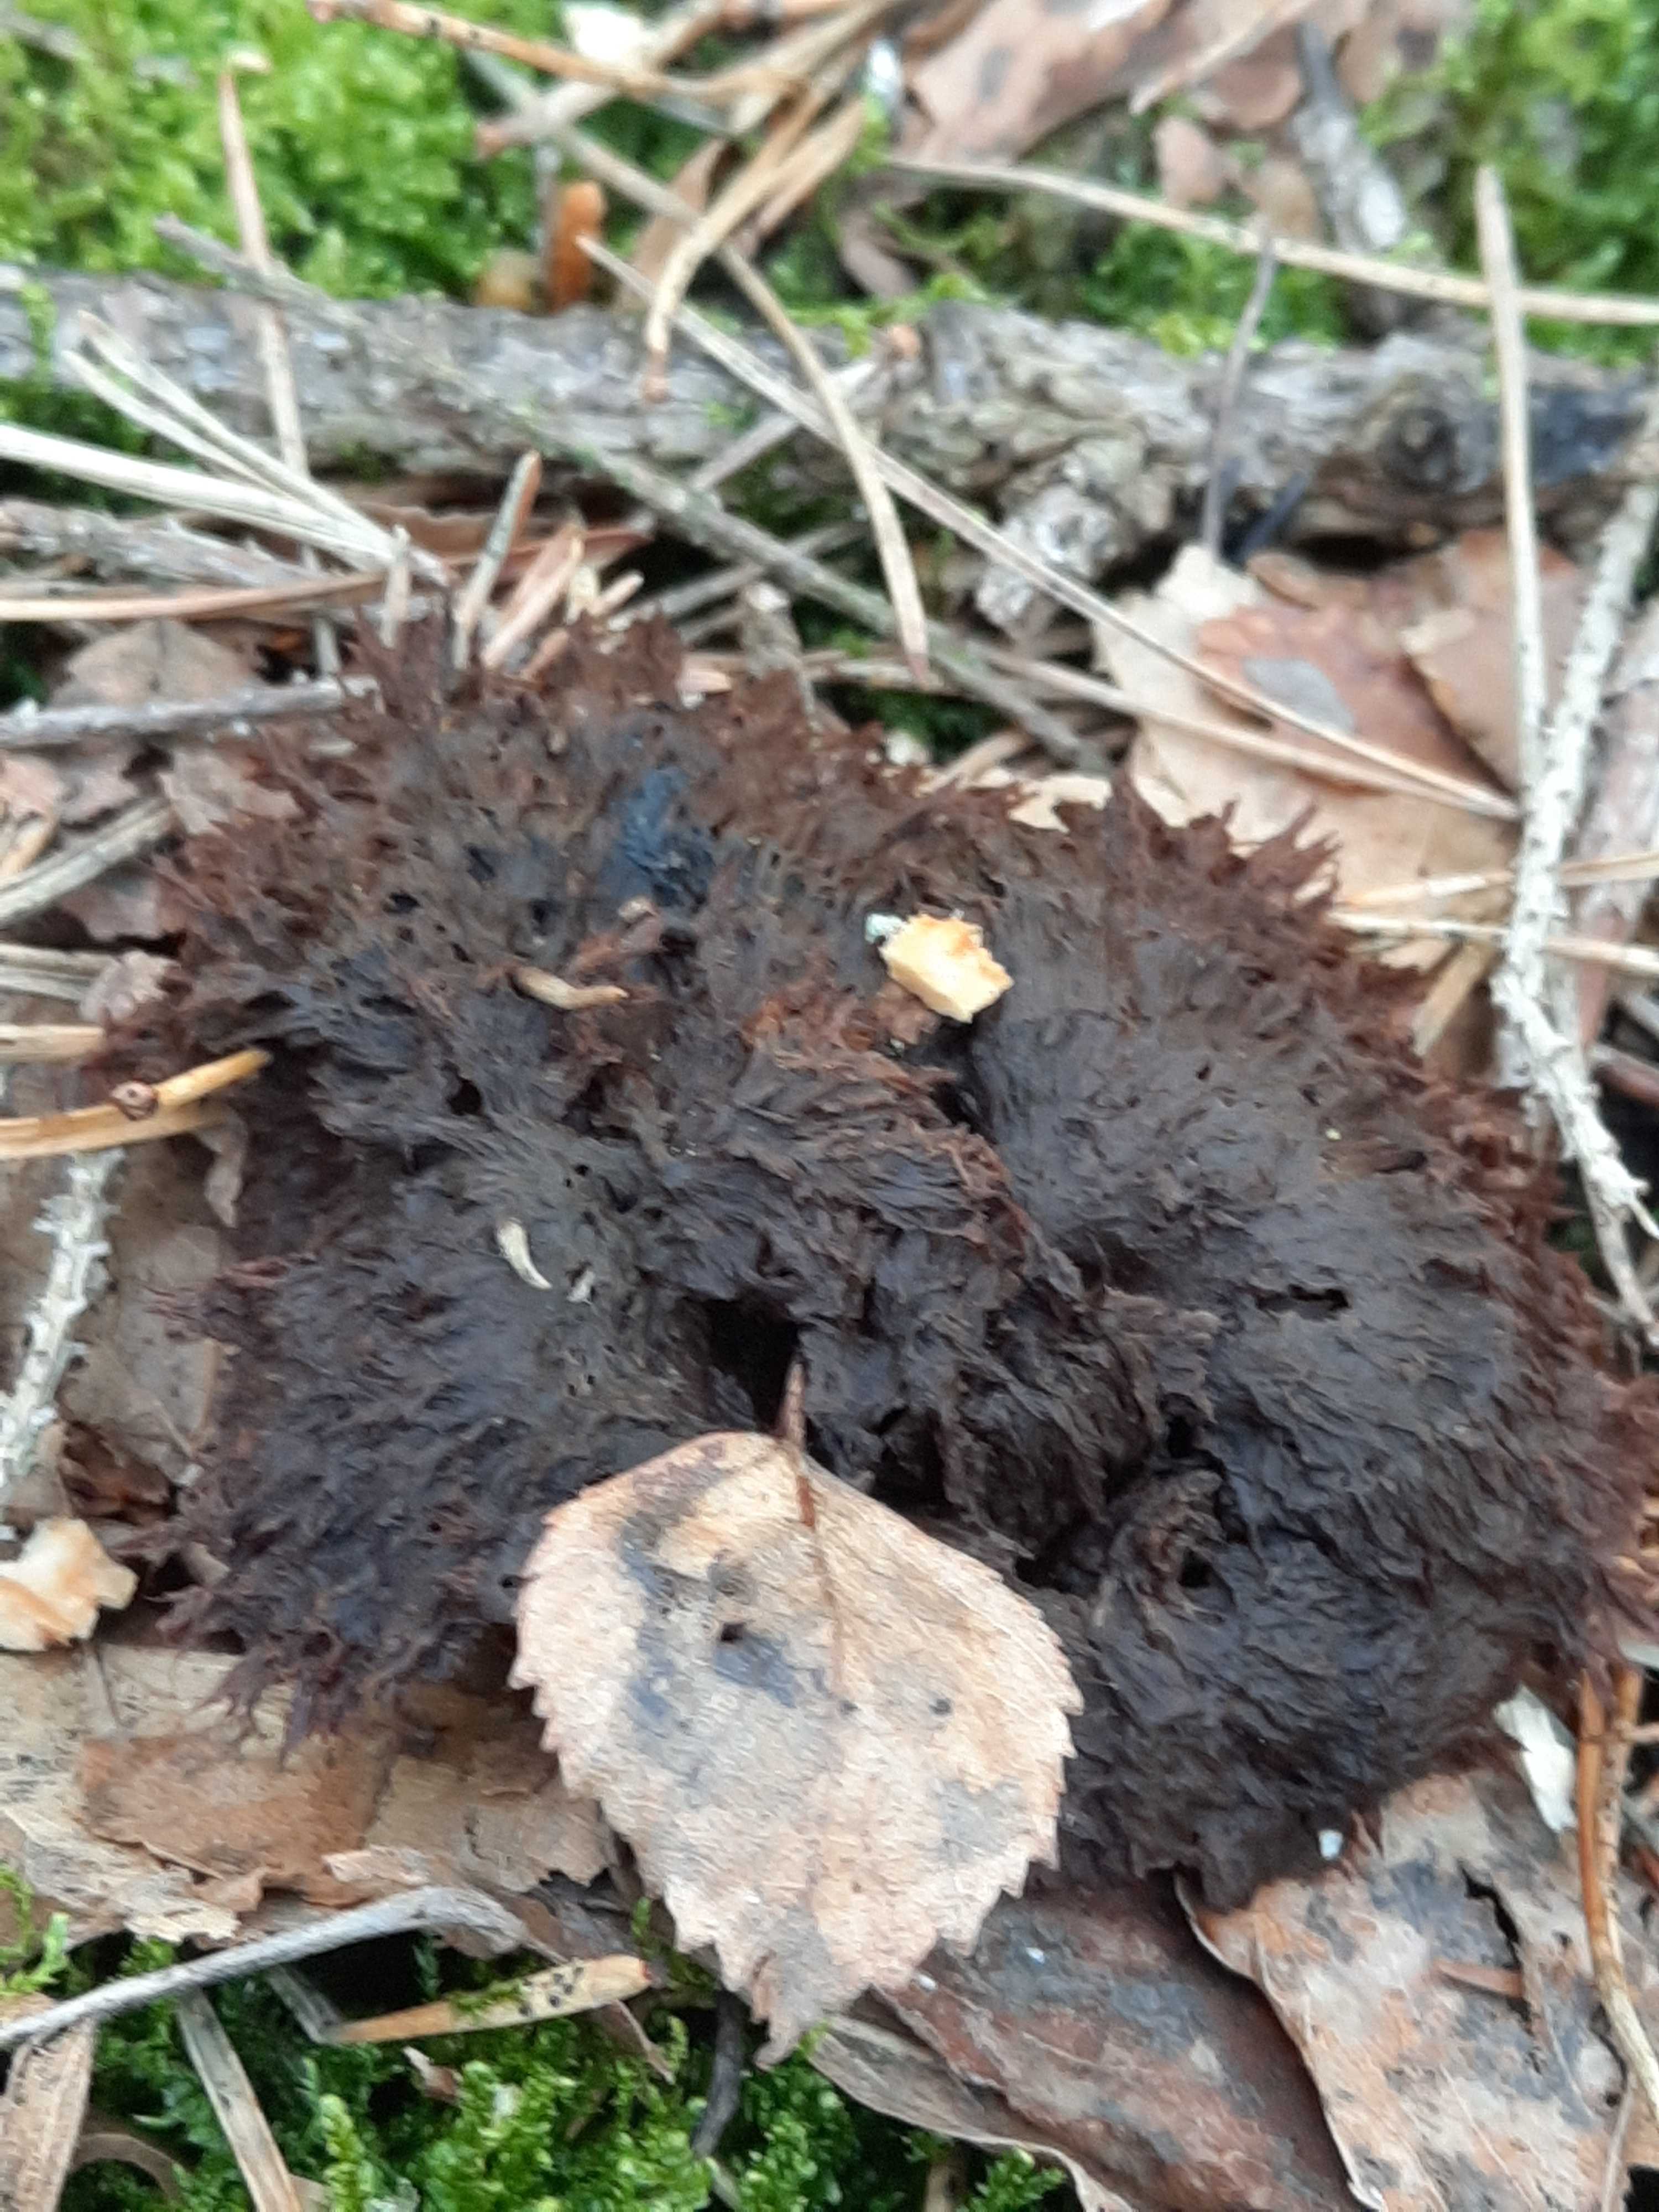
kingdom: Fungi
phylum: Basidiomycota
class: Agaricomycetes
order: Thelephorales
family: Thelephoraceae
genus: Thelephora
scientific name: Thelephora terrestris
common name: fliget frynsesvamp
